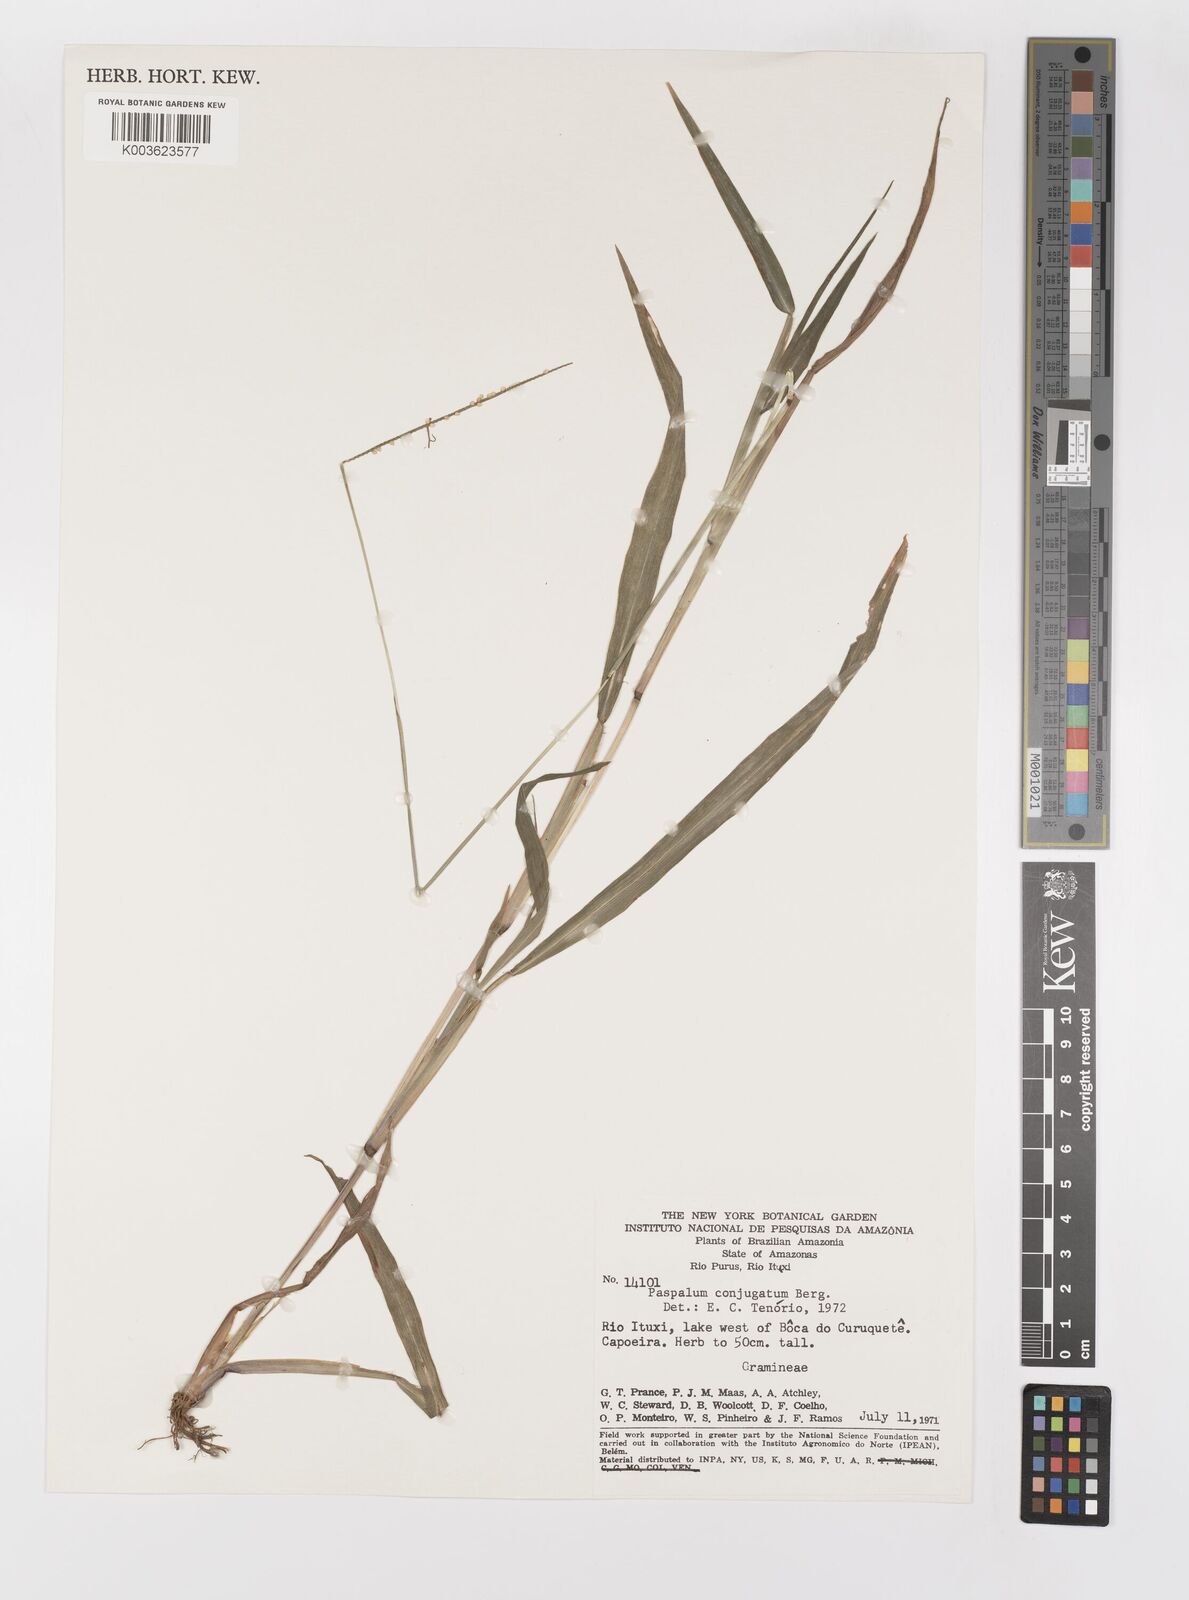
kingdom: Plantae
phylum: Tracheophyta
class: Liliopsida
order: Poales
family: Poaceae
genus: Paspalum
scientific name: Paspalum conjugatum
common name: Hilograss
